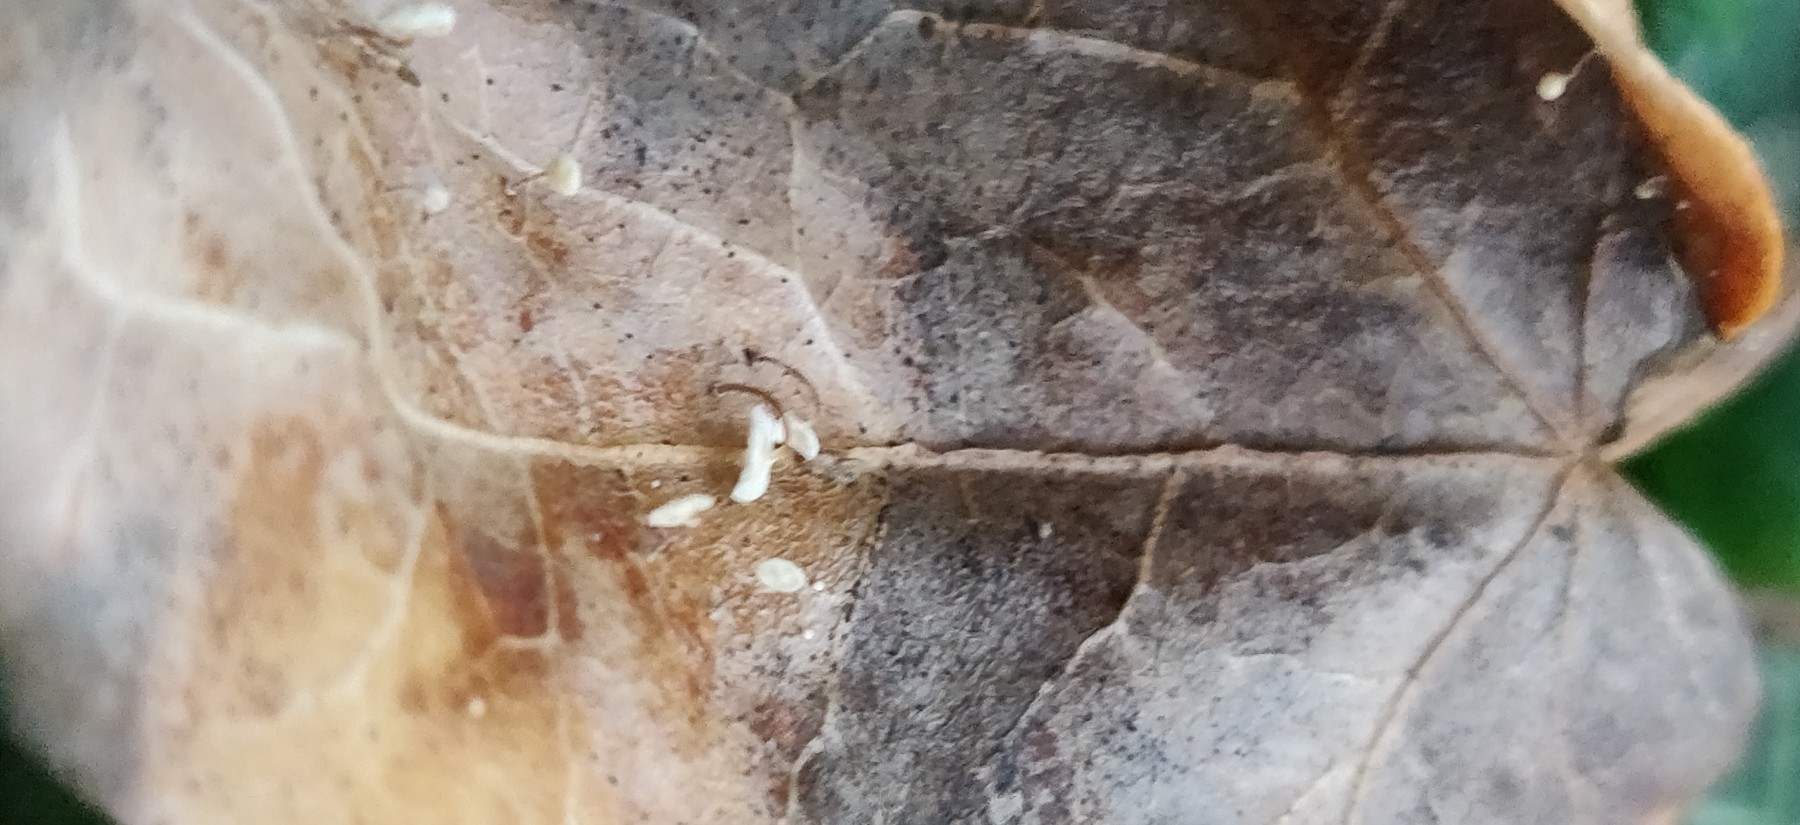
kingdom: Fungi
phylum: Basidiomycota
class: Agaricomycetes
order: Agaricales
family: Marasmiaceae
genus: Marasmius
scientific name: Marasmius epiphylloides
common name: vedbend-bruskhat
